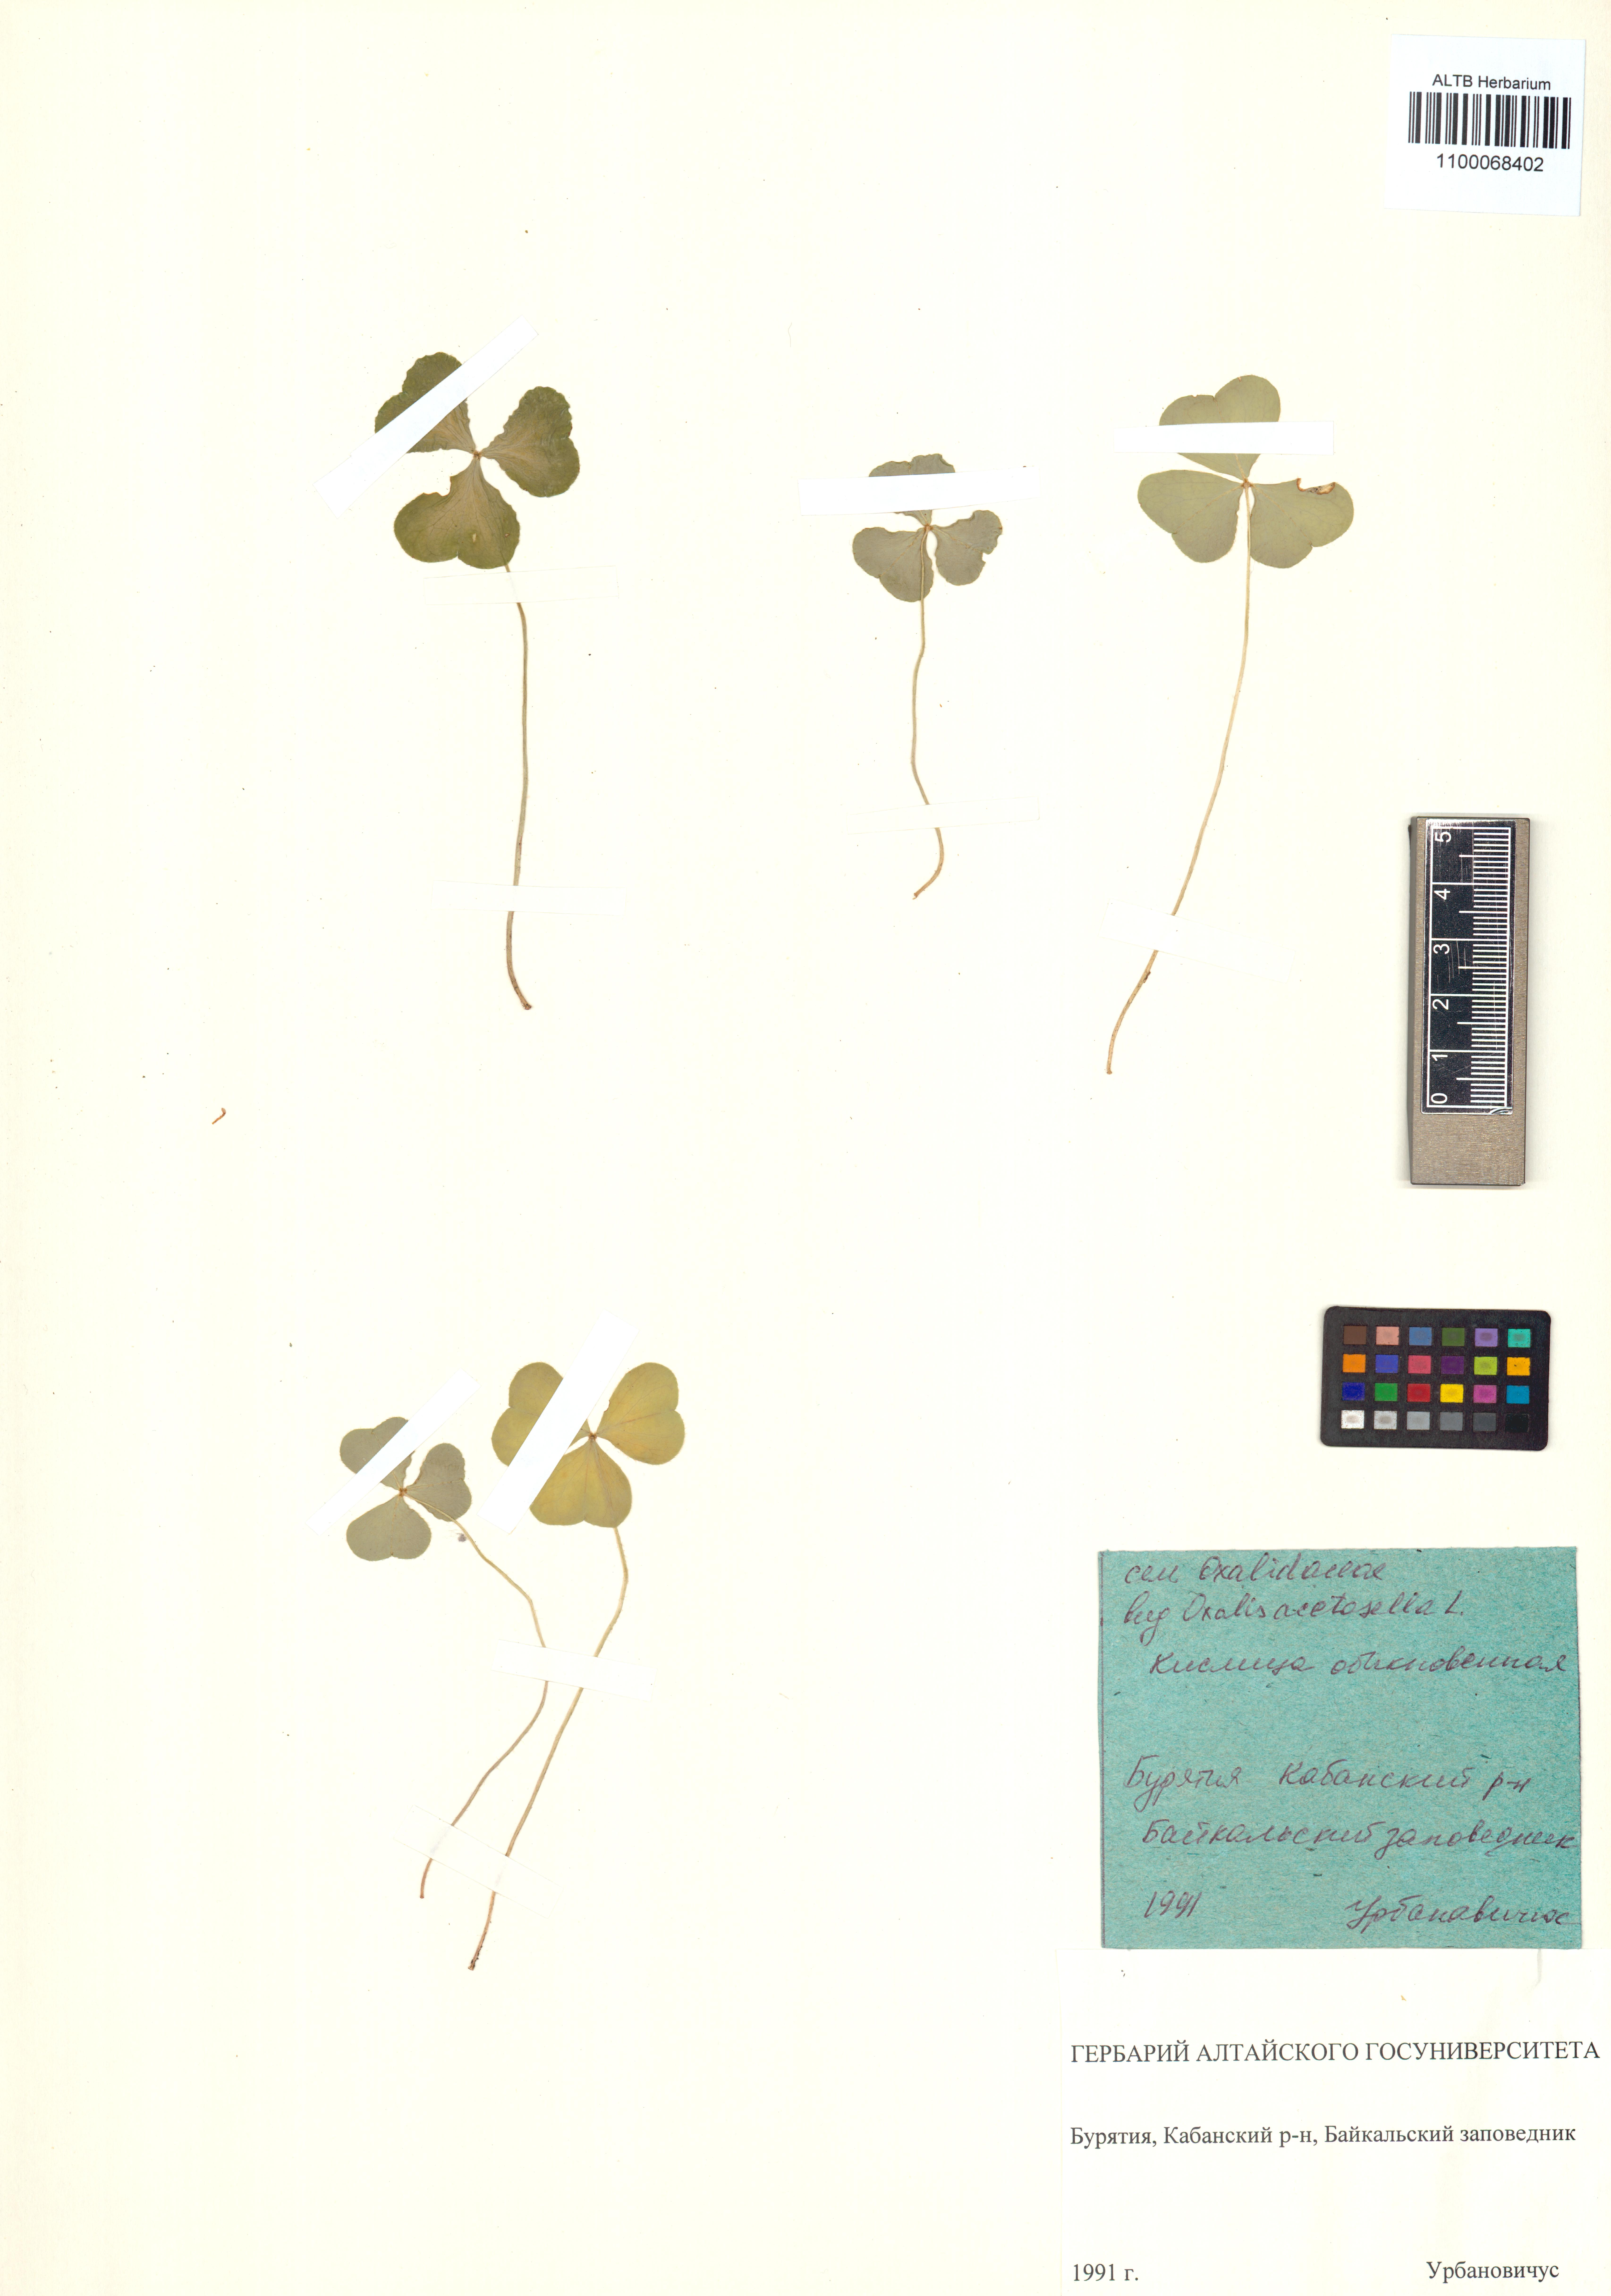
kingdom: Plantae
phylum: Tracheophyta
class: Magnoliopsida
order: Oxalidales
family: Oxalidaceae
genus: Oxalis
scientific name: Oxalis acetosella
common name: Wood-sorrel
